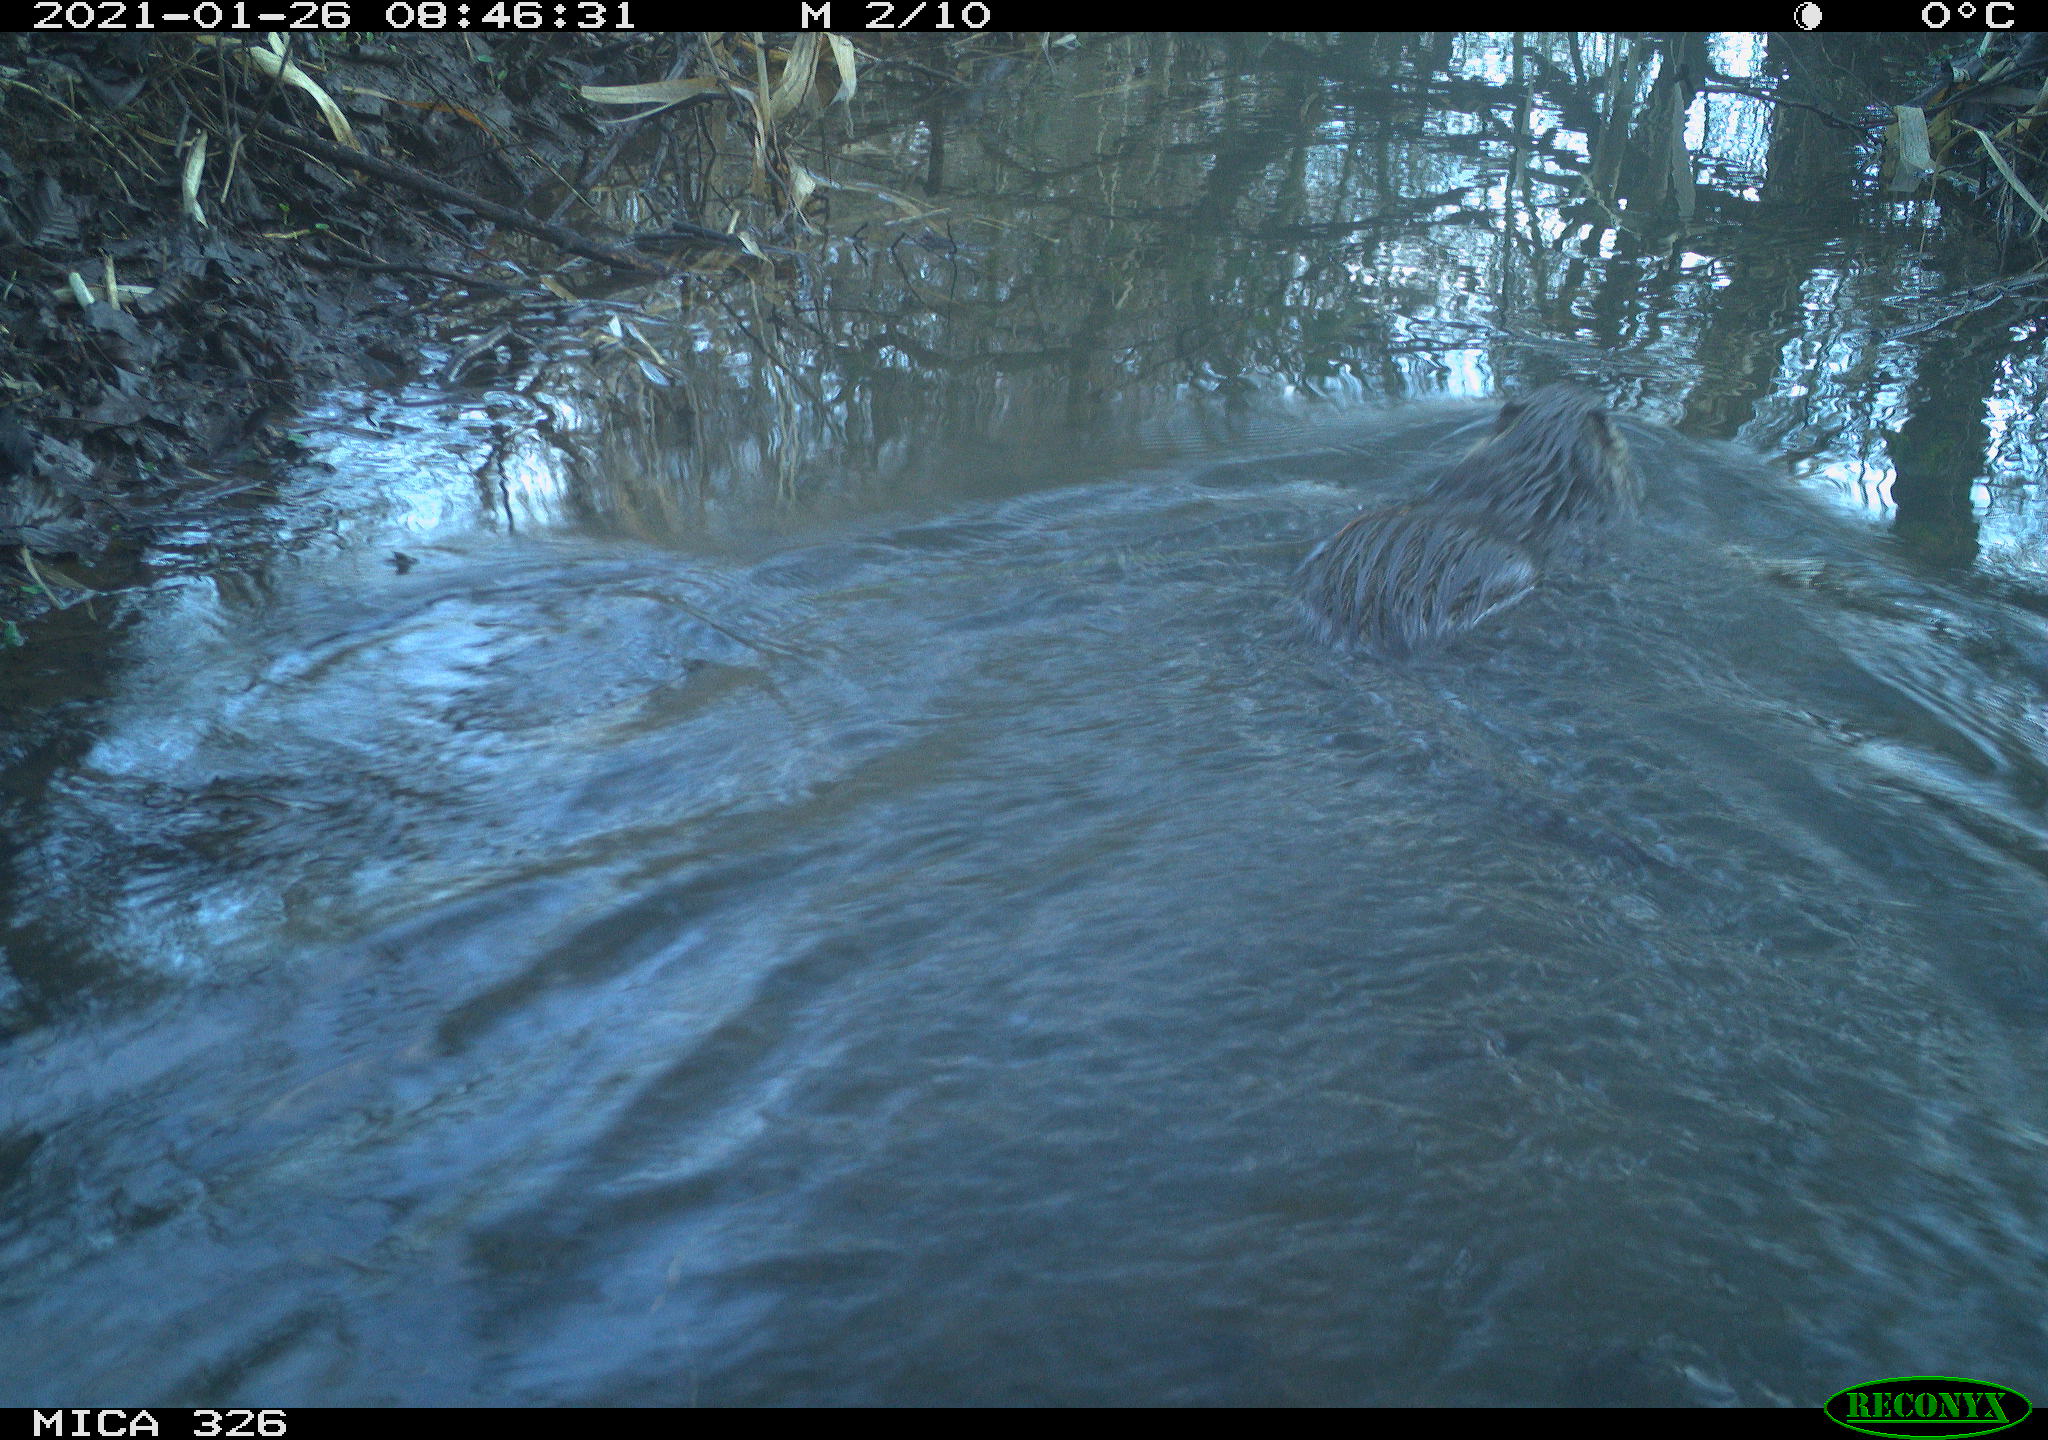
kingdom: Animalia
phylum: Chordata
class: Mammalia
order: Rodentia
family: Myocastoridae
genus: Myocastor
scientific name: Myocastor coypus
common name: Coypu
